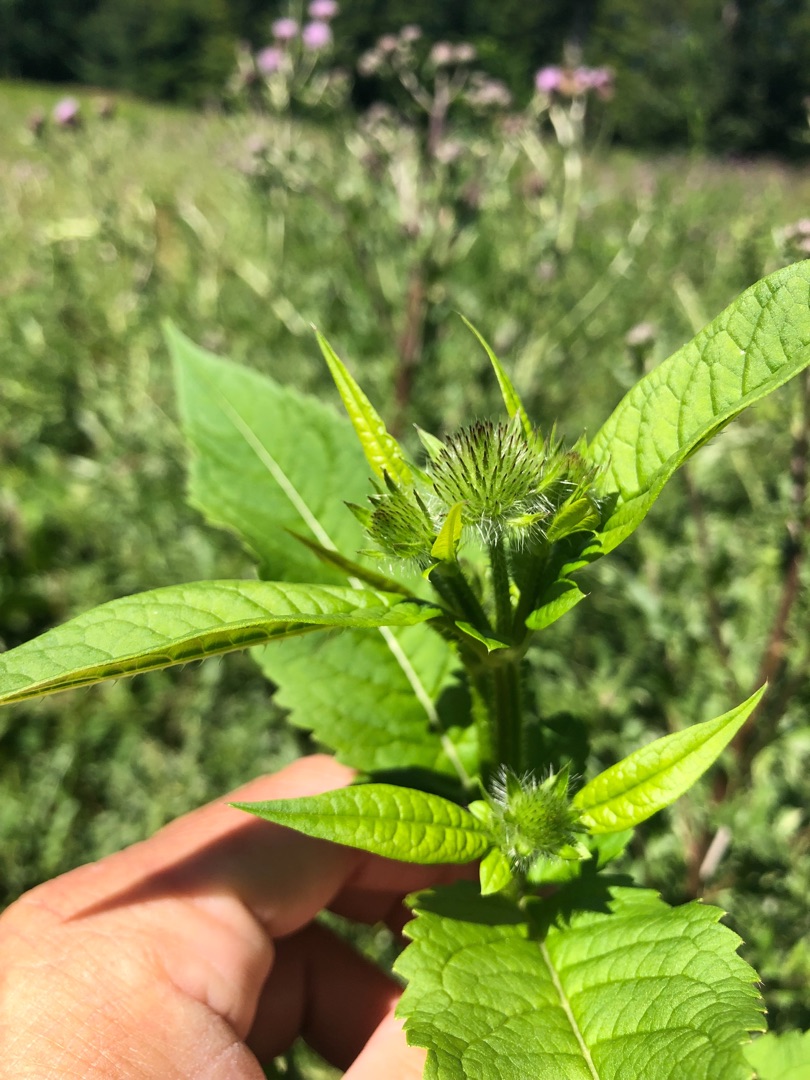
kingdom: Plantae
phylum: Tracheophyta
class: Magnoliopsida
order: Dipsacales
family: Caprifoliaceae
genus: Dipsacus
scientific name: Dipsacus pilosus
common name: Håret kartebolle
